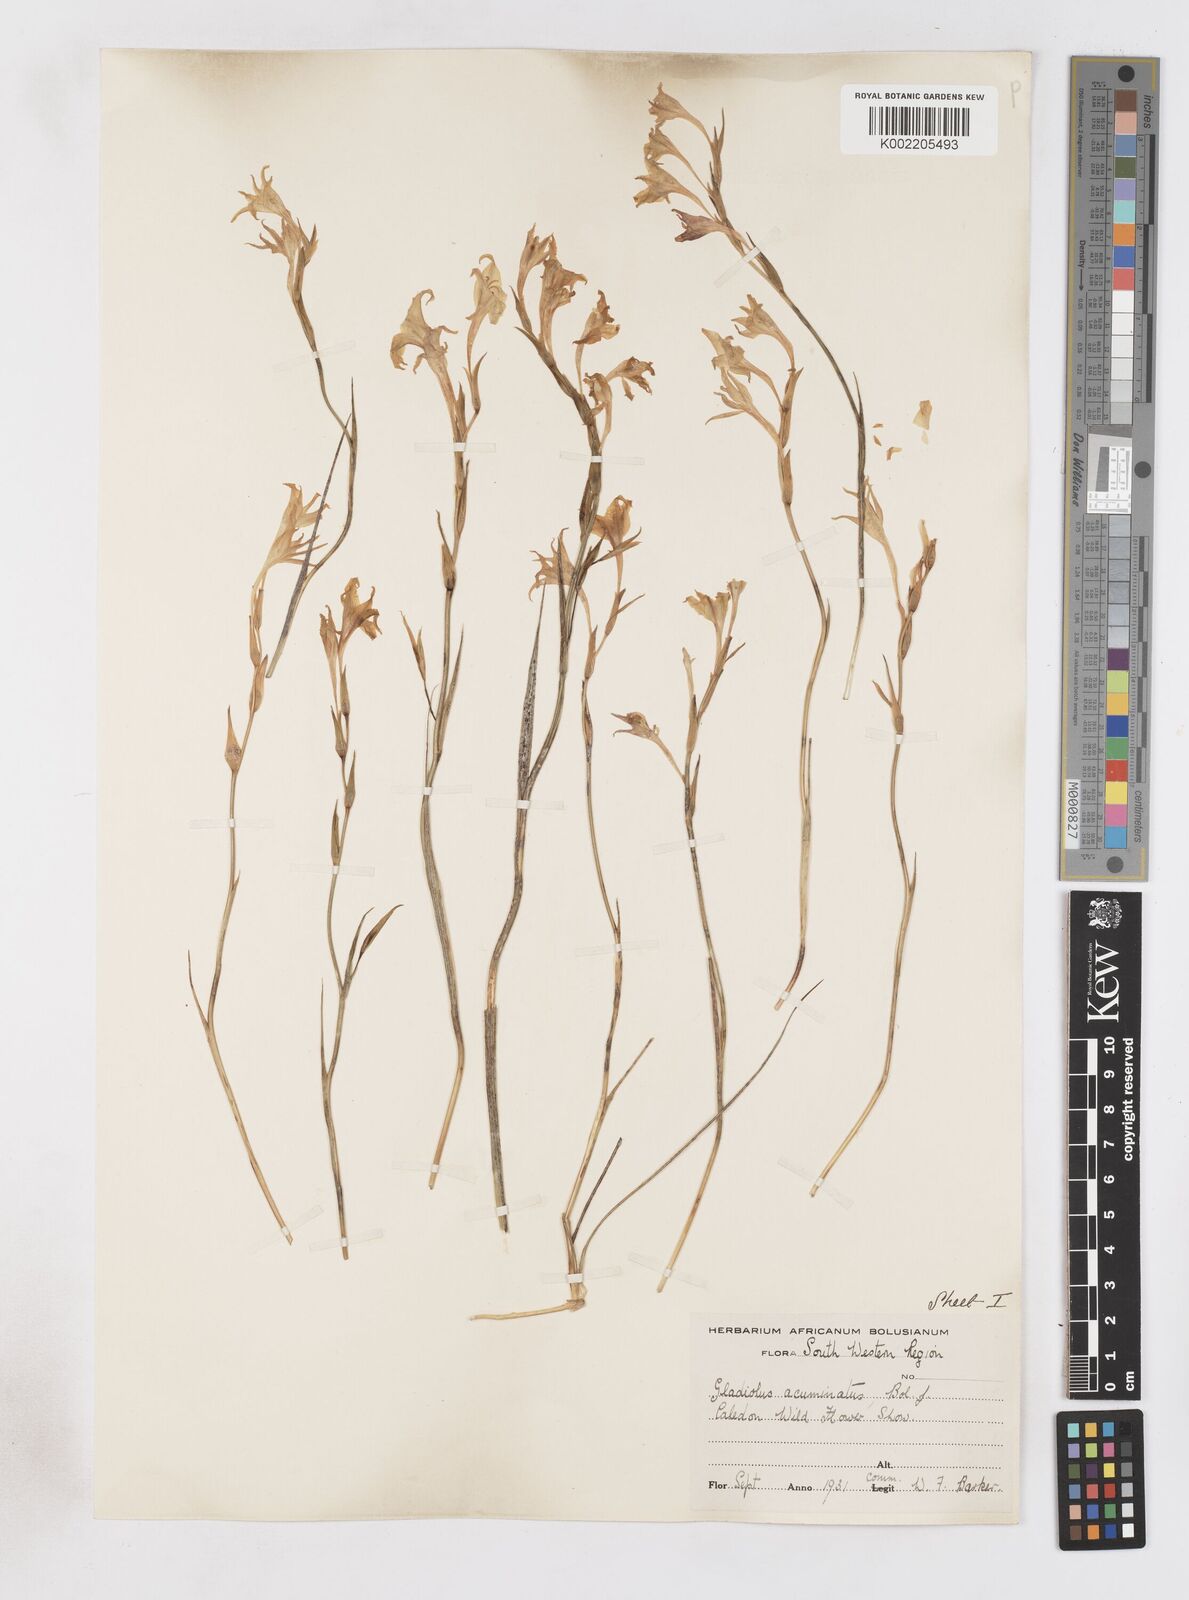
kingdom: Plantae
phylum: Tracheophyta
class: Liliopsida
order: Asparagales
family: Iridaceae
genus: Gladiolus
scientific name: Gladiolus acuminatus
